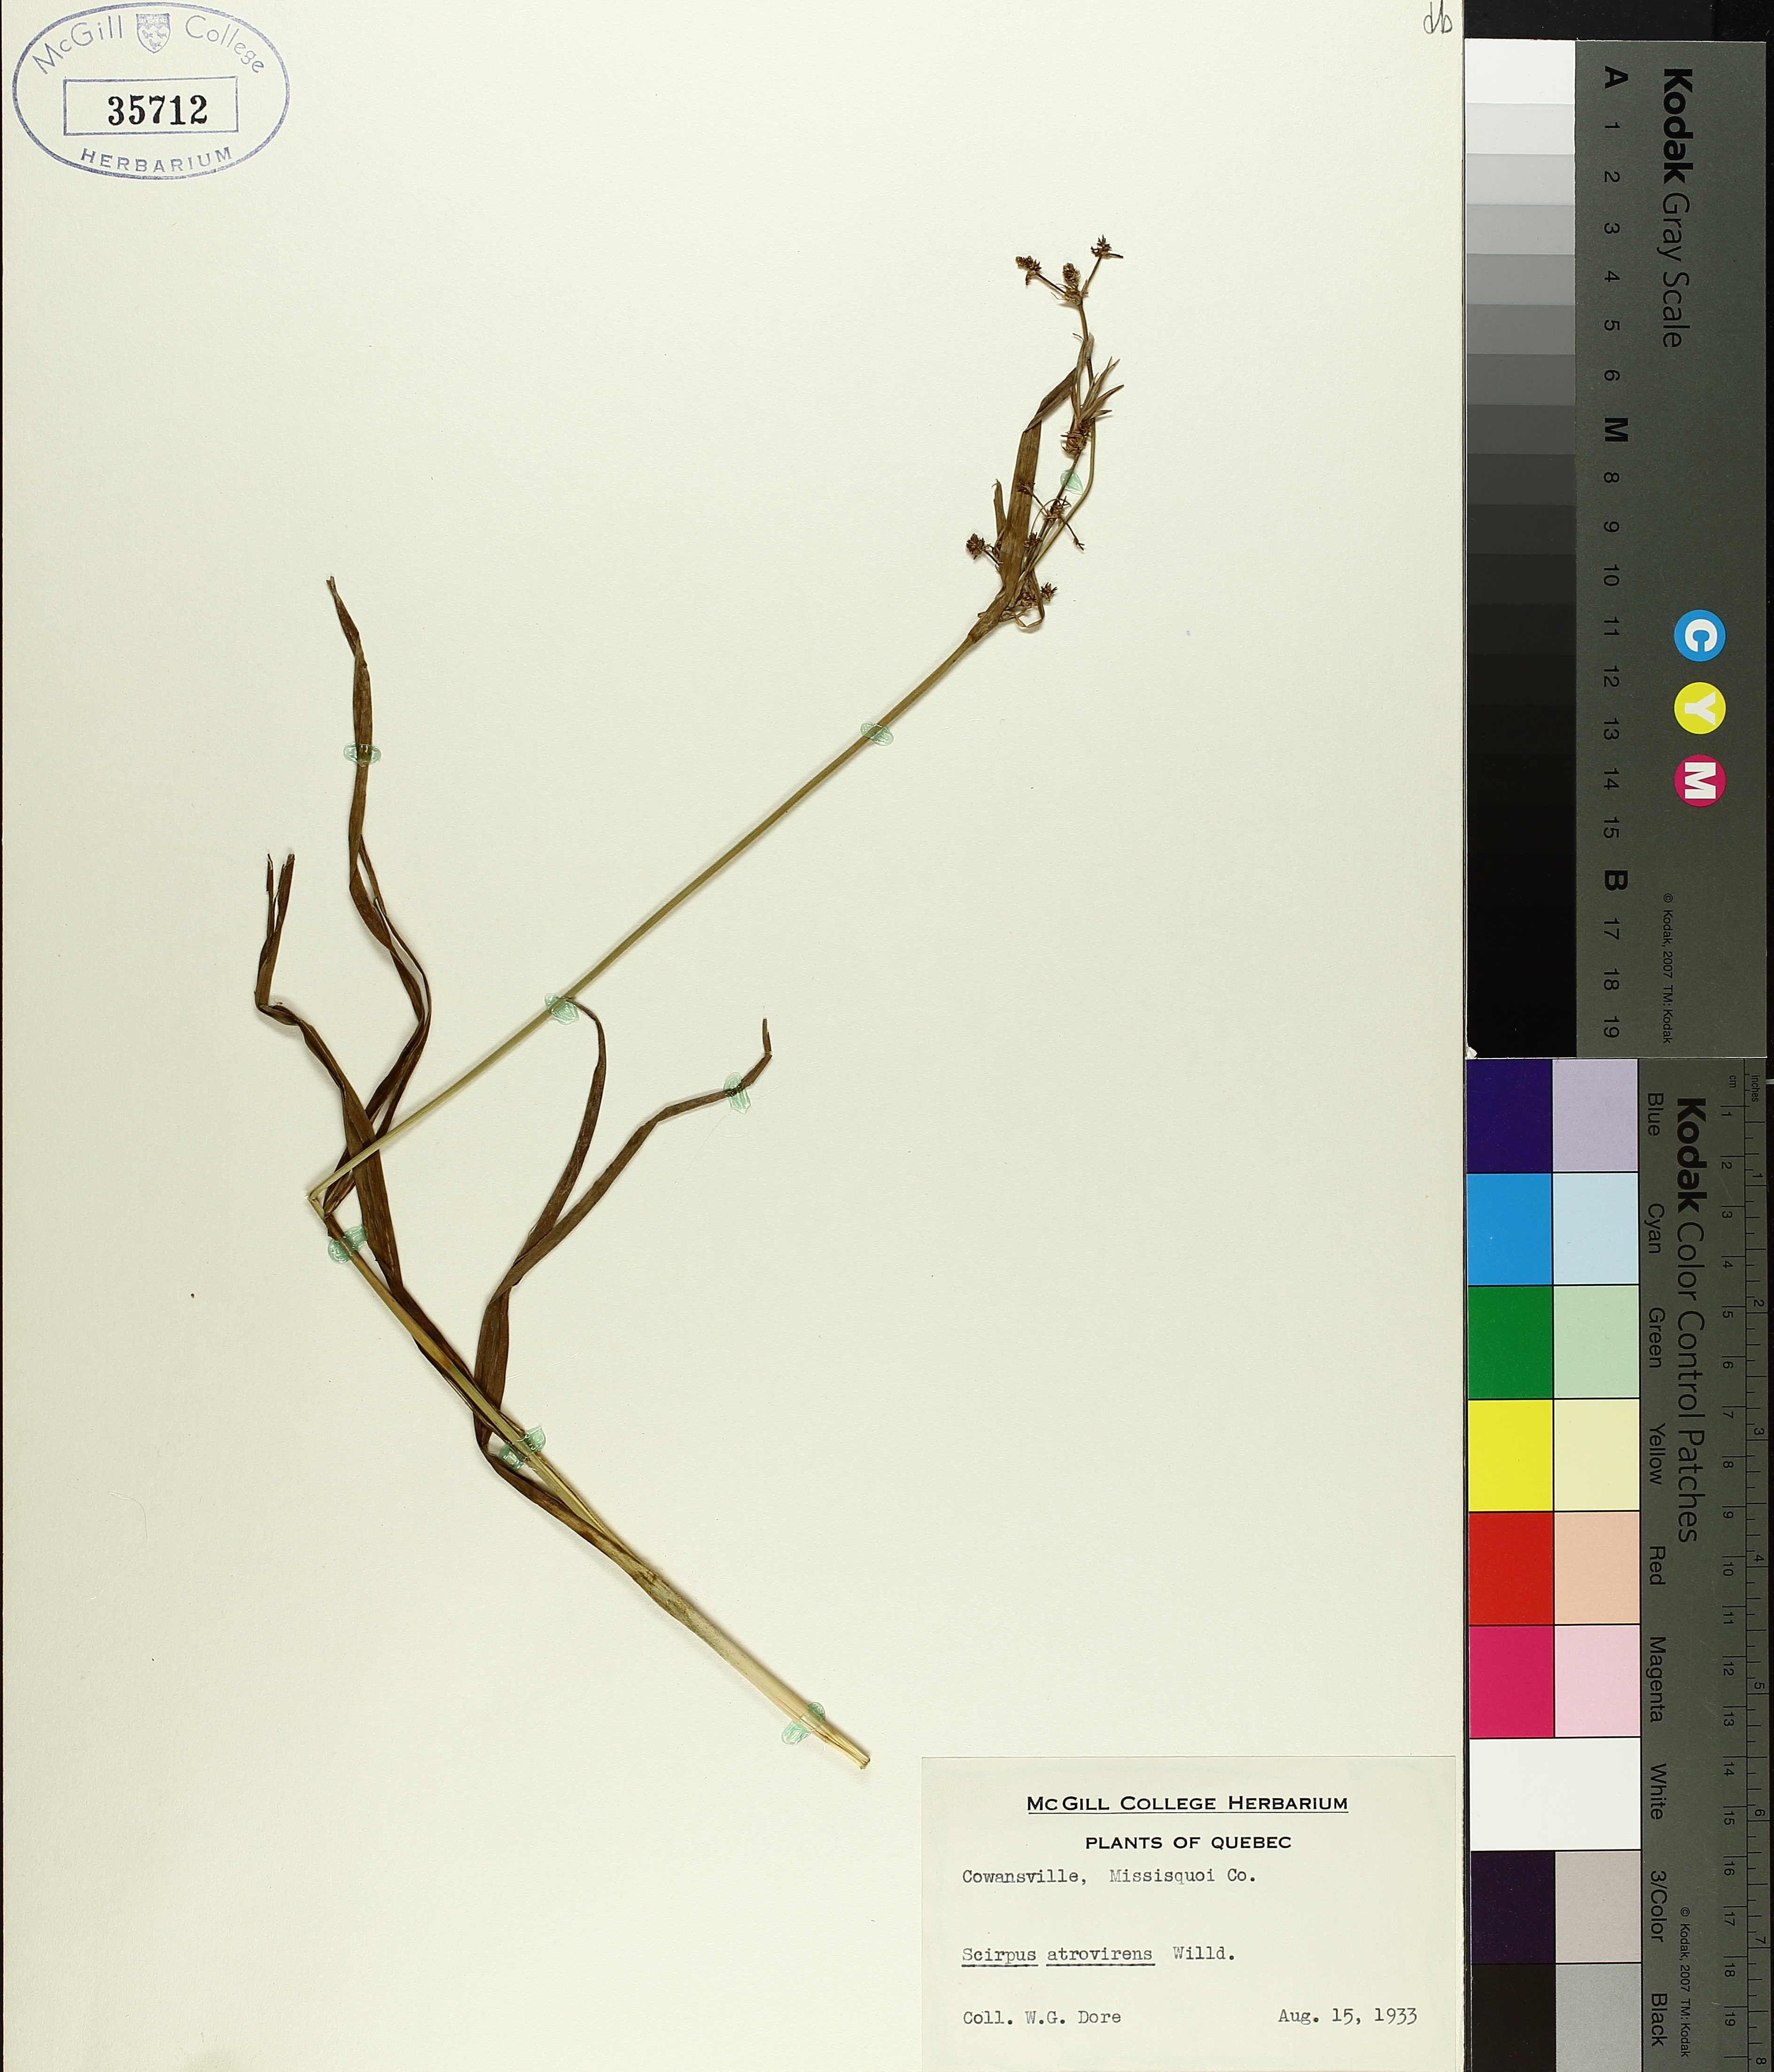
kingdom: Plantae
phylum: Tracheophyta
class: Liliopsida
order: Poales
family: Cyperaceae
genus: Scirpus
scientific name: Scirpus atrovirens
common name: Black bulrush
